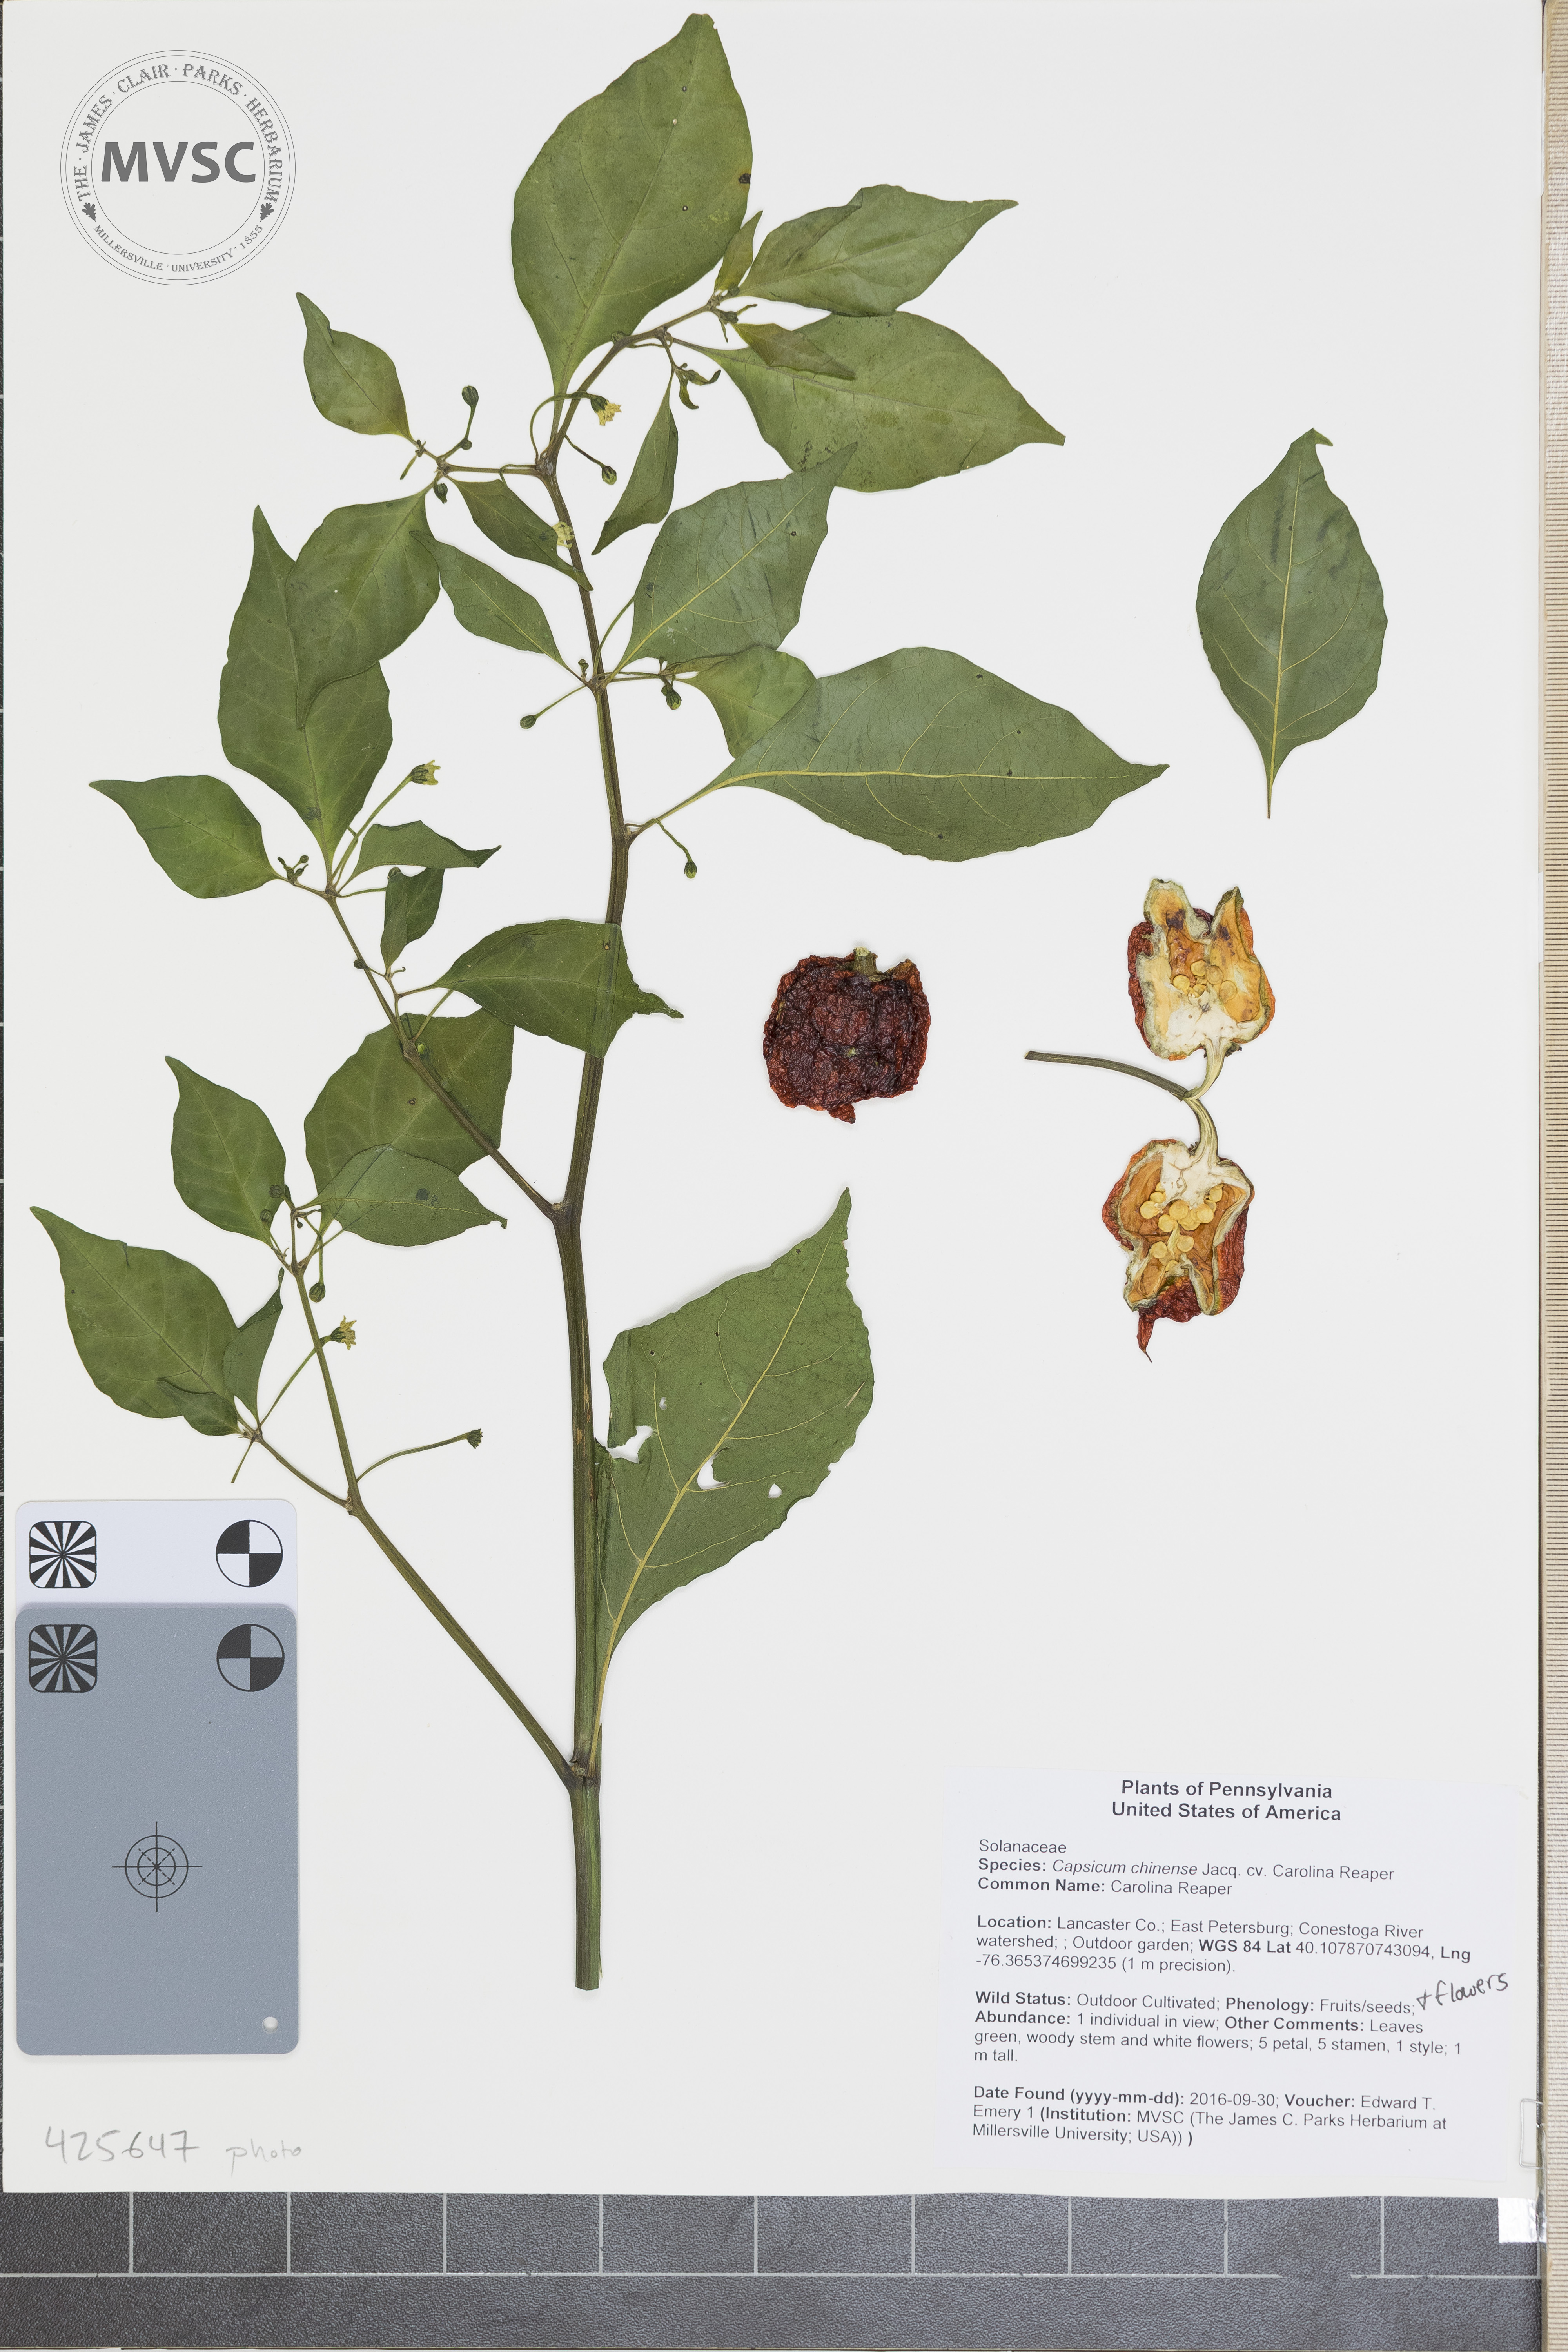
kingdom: Plantae
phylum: Tracheophyta
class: Magnoliopsida
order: Solanales
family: Solanaceae
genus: Capsicum
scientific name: Capsicum chinense
